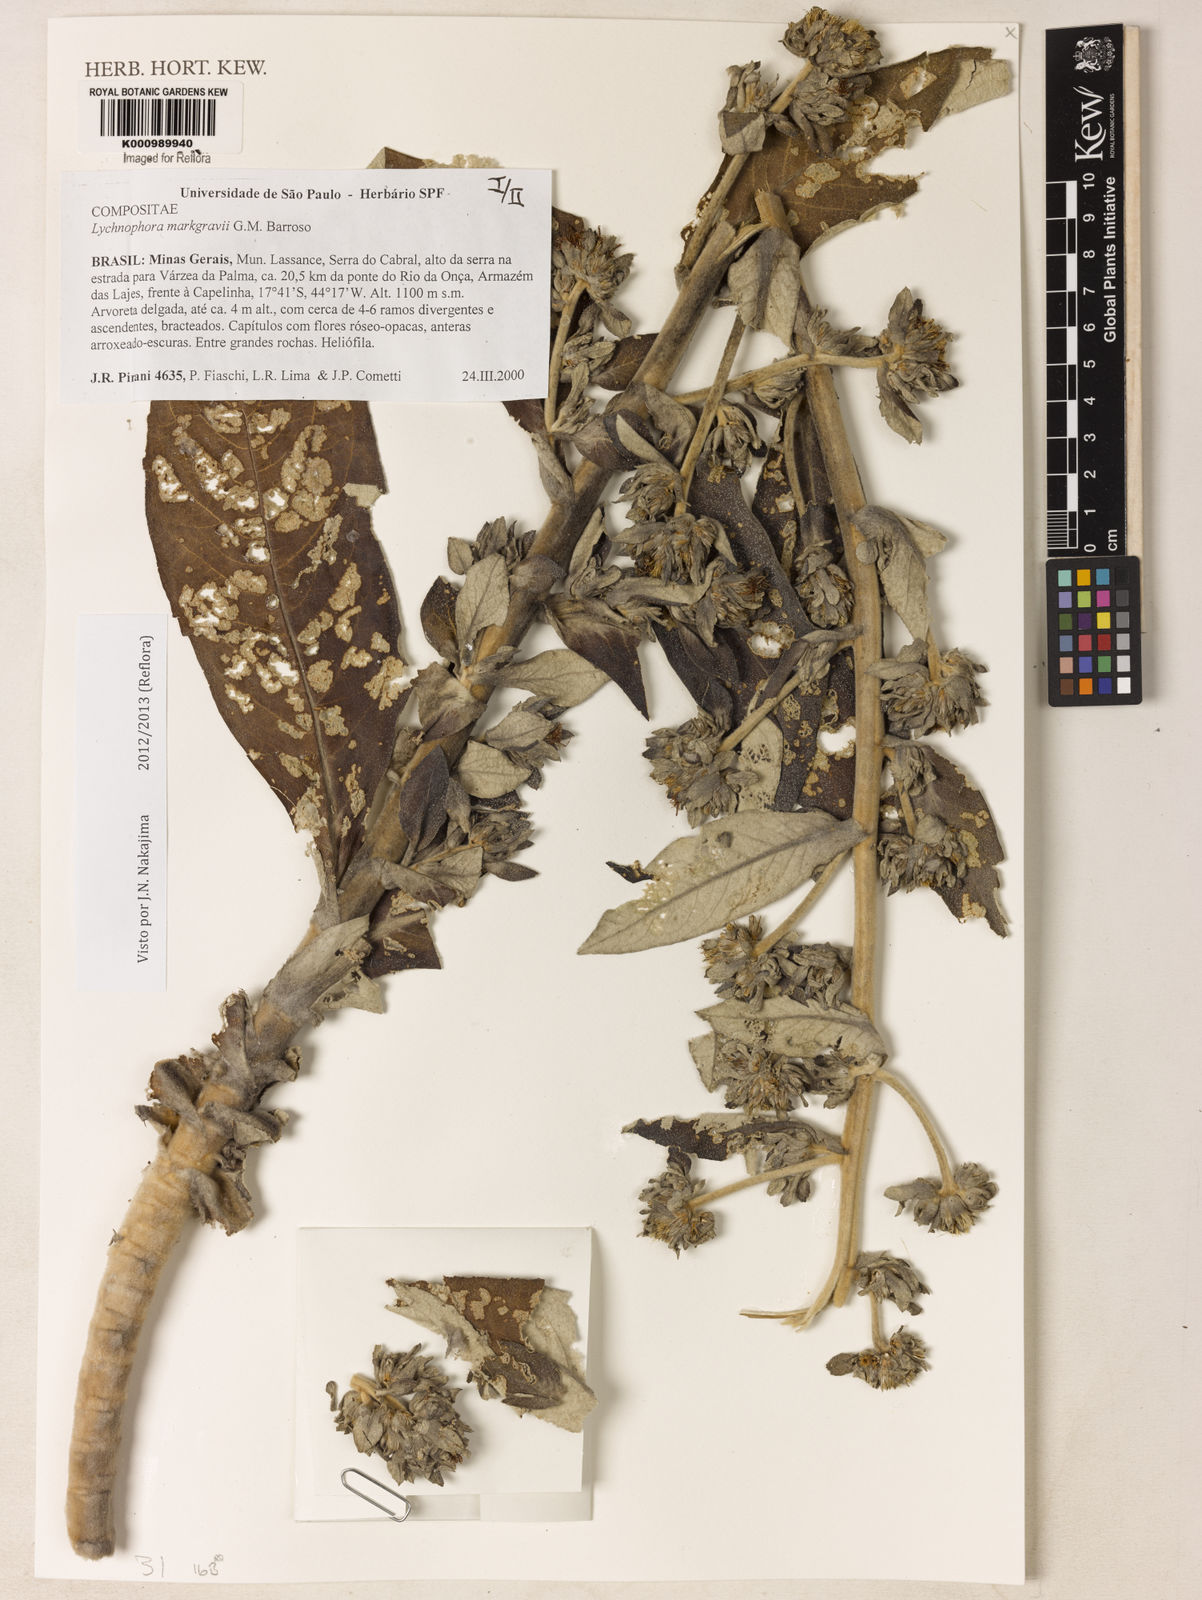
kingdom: Plantae
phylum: Tracheophyta
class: Magnoliopsida
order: Asterales
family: Asteraceae
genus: Lychnophora
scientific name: Lychnophora
